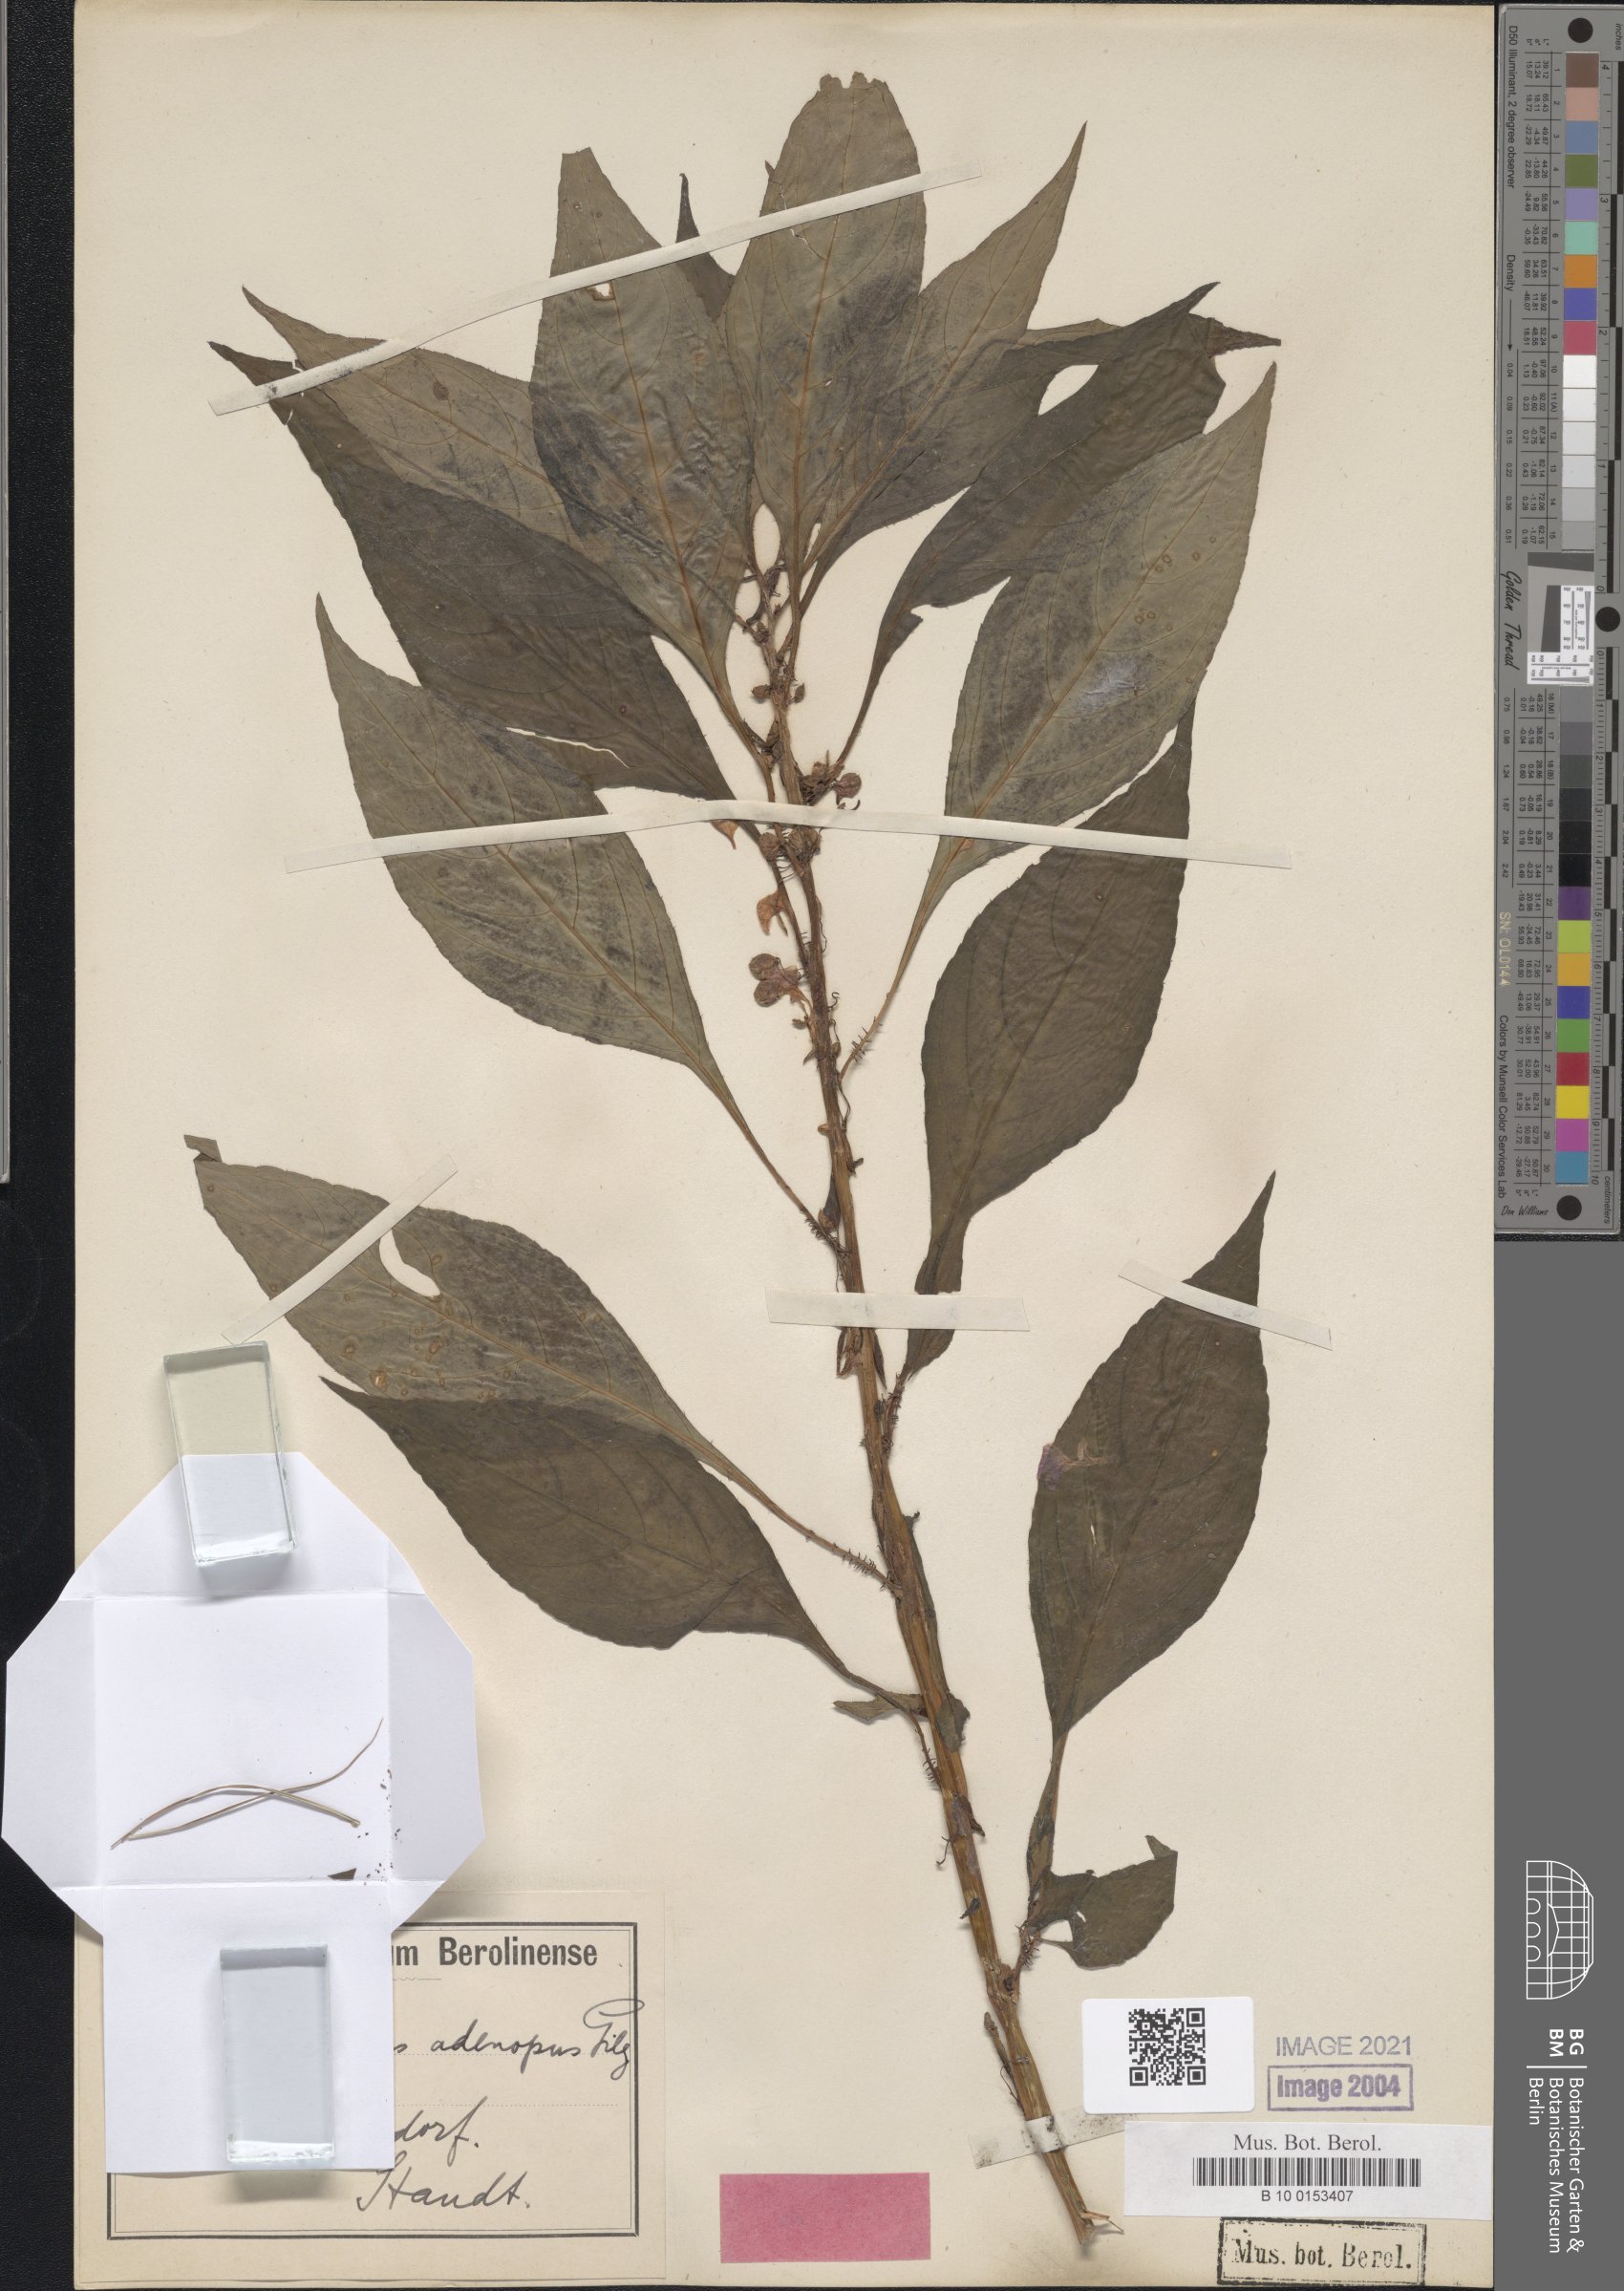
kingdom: Plantae
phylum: Tracheophyta
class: Magnoliopsida
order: Ericales
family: Balsaminaceae
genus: Impatiens
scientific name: Impatiens mannii
